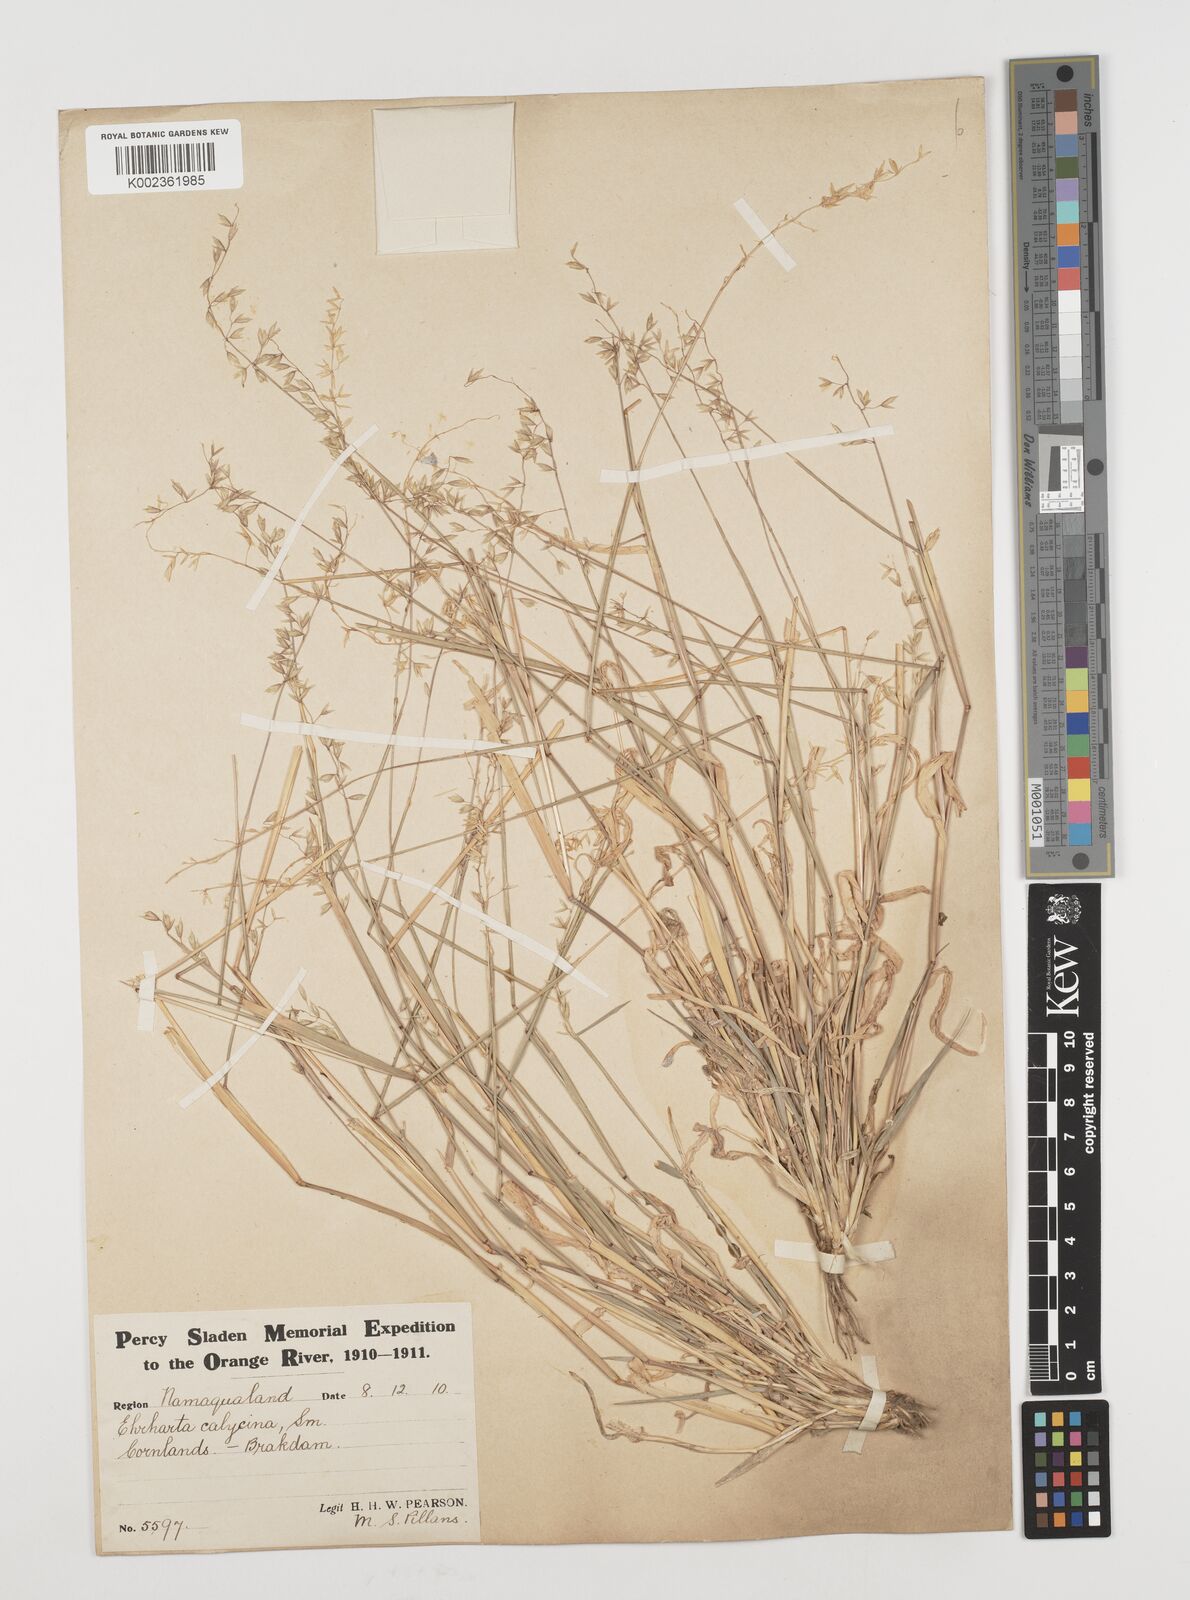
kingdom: Plantae
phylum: Tracheophyta
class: Liliopsida
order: Poales
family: Poaceae
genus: Ehrharta
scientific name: Ehrharta calycina
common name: Perennial veldtgrass
